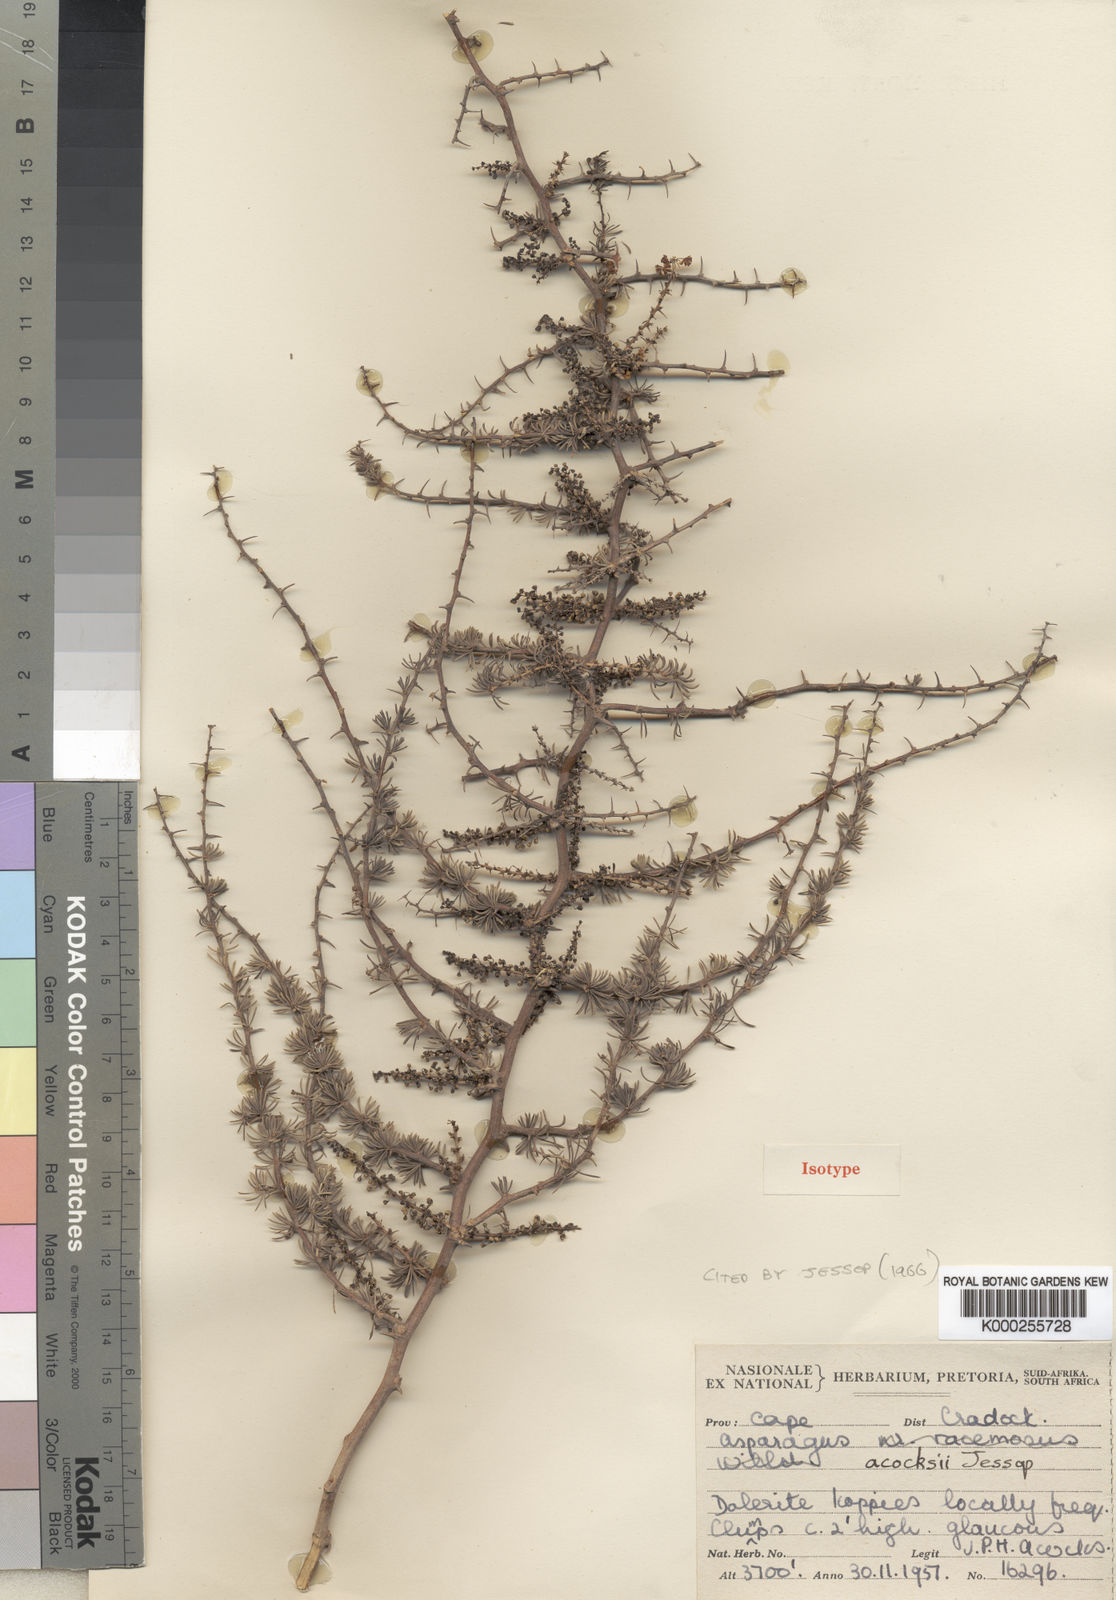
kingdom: Plantae
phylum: Tracheophyta
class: Liliopsida
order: Asparagales
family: Asparagaceae
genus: Asparagus
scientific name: Asparagus acocksii
